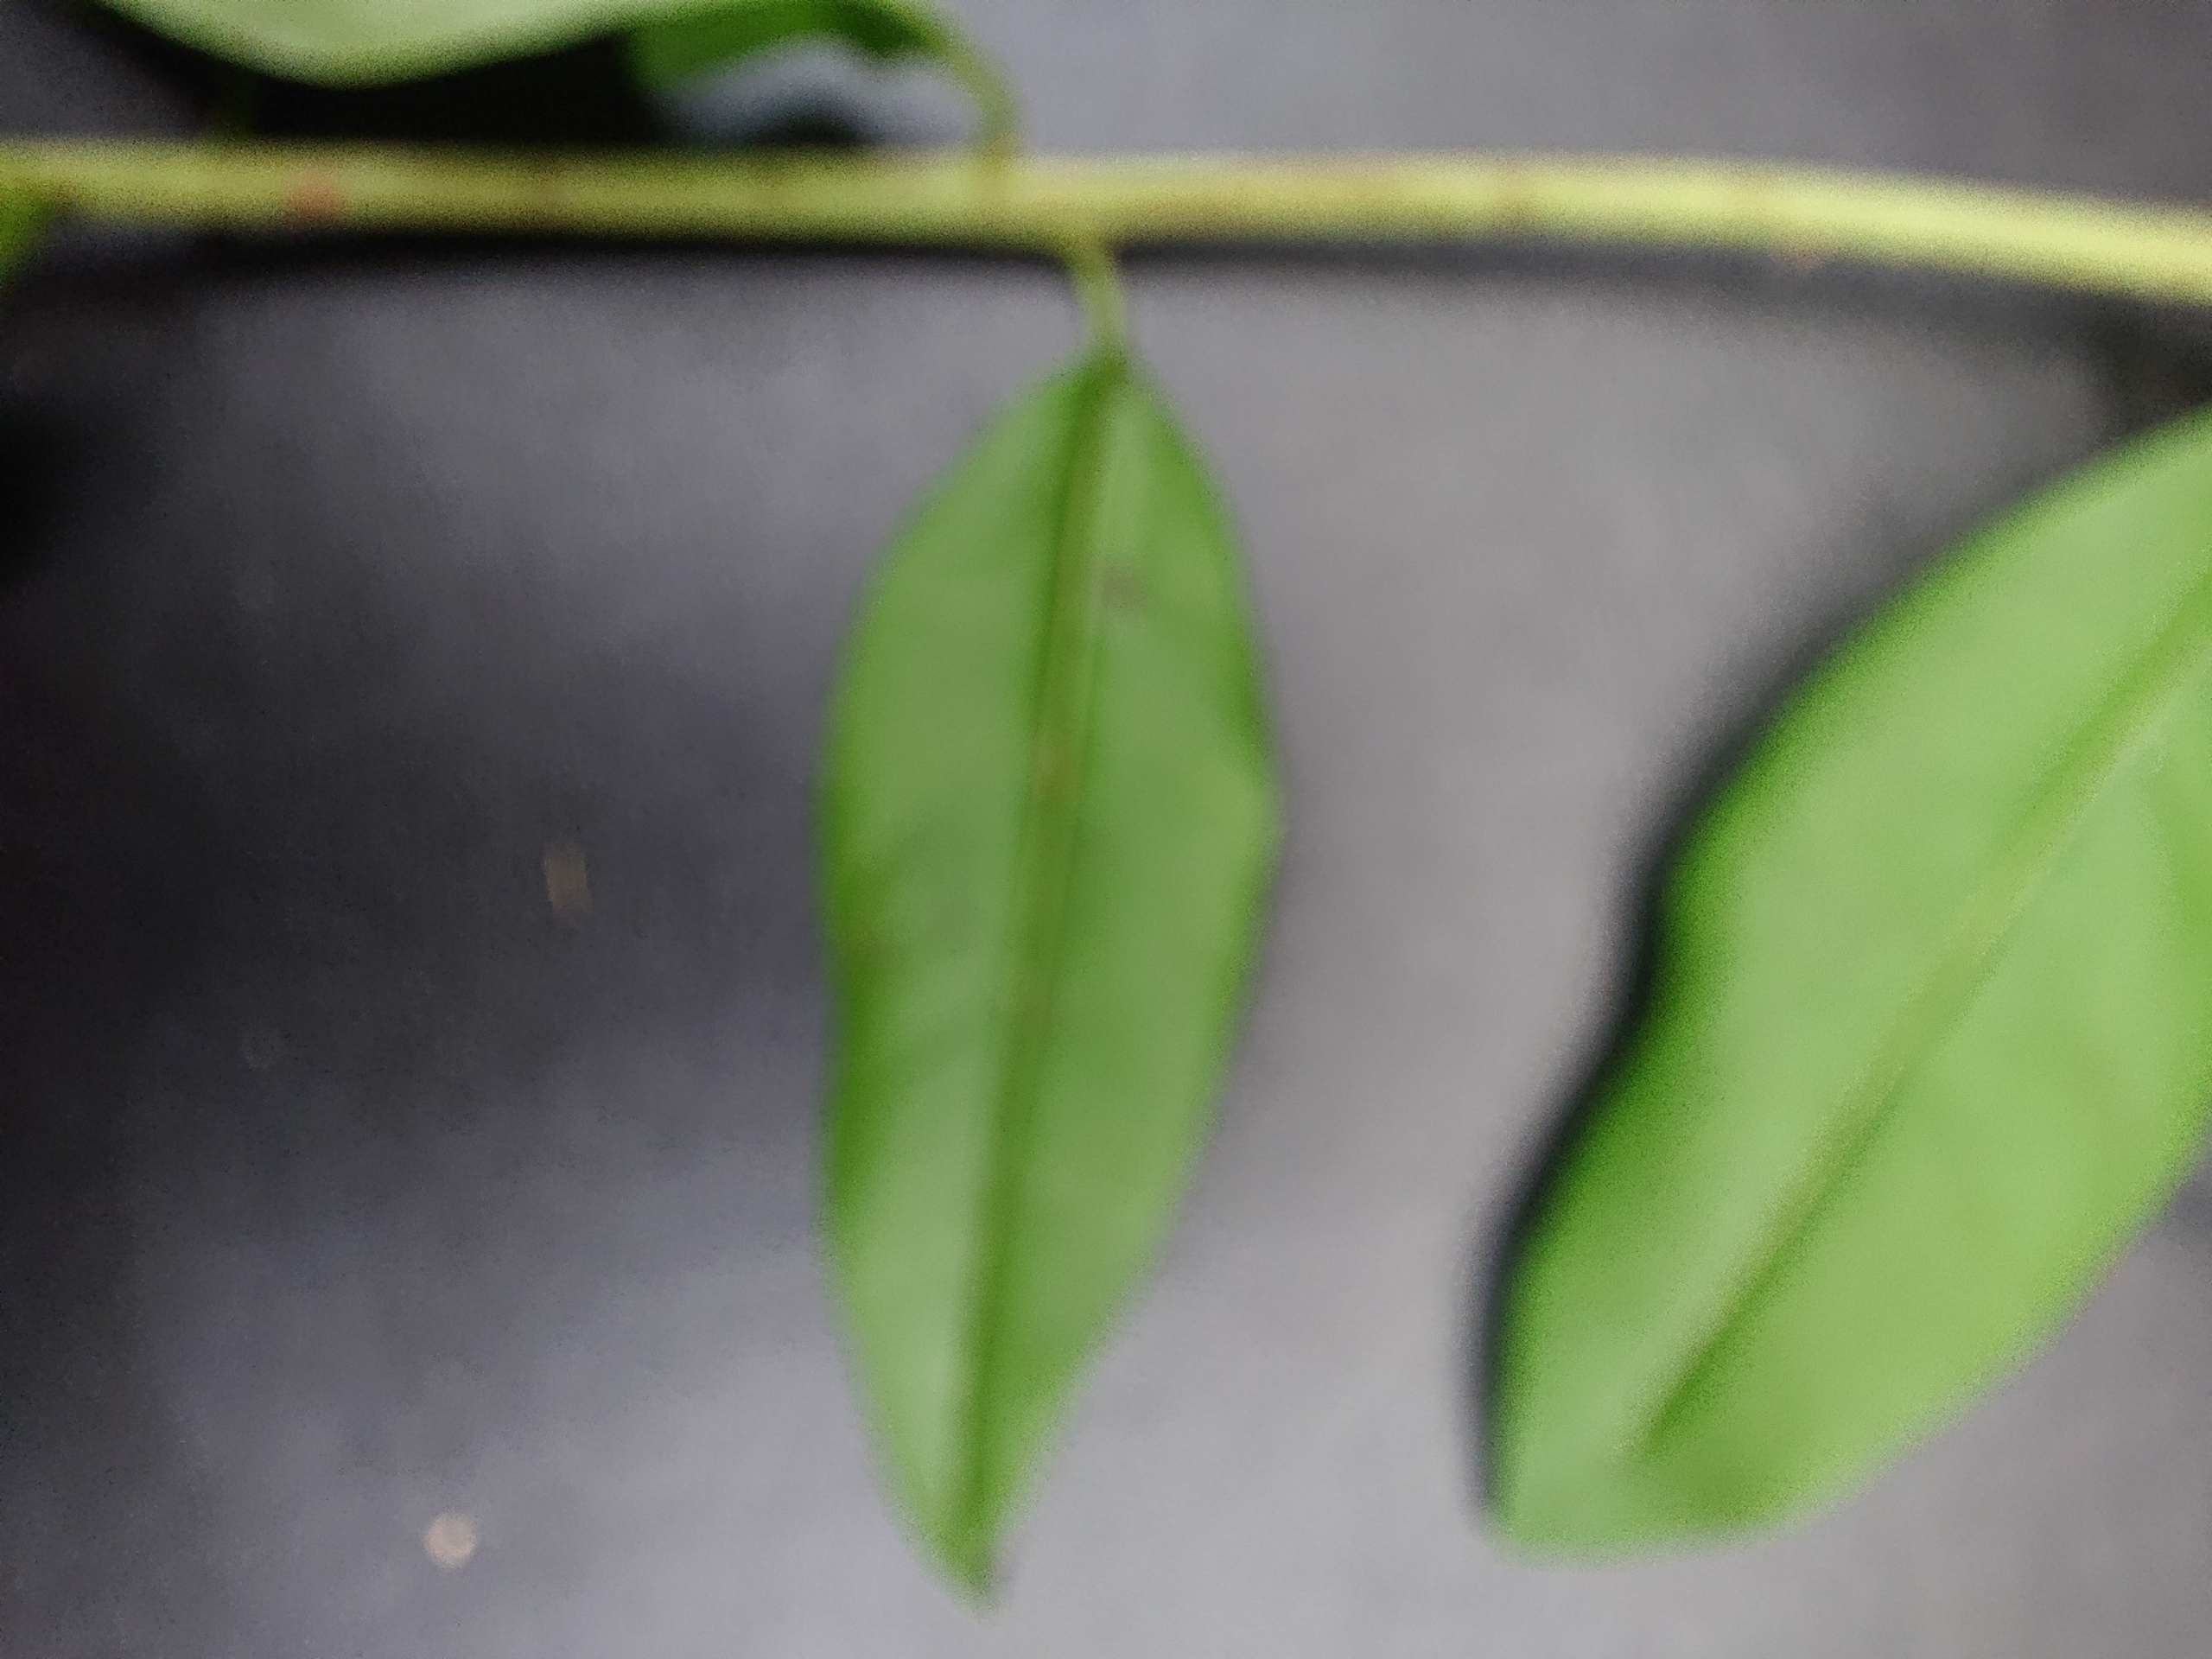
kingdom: Plantae
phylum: Tracheophyta
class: Magnoliopsida
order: Lamiales
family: Oleaceae
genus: Ligustrum
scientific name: Ligustrum vulgare
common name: Liguster
